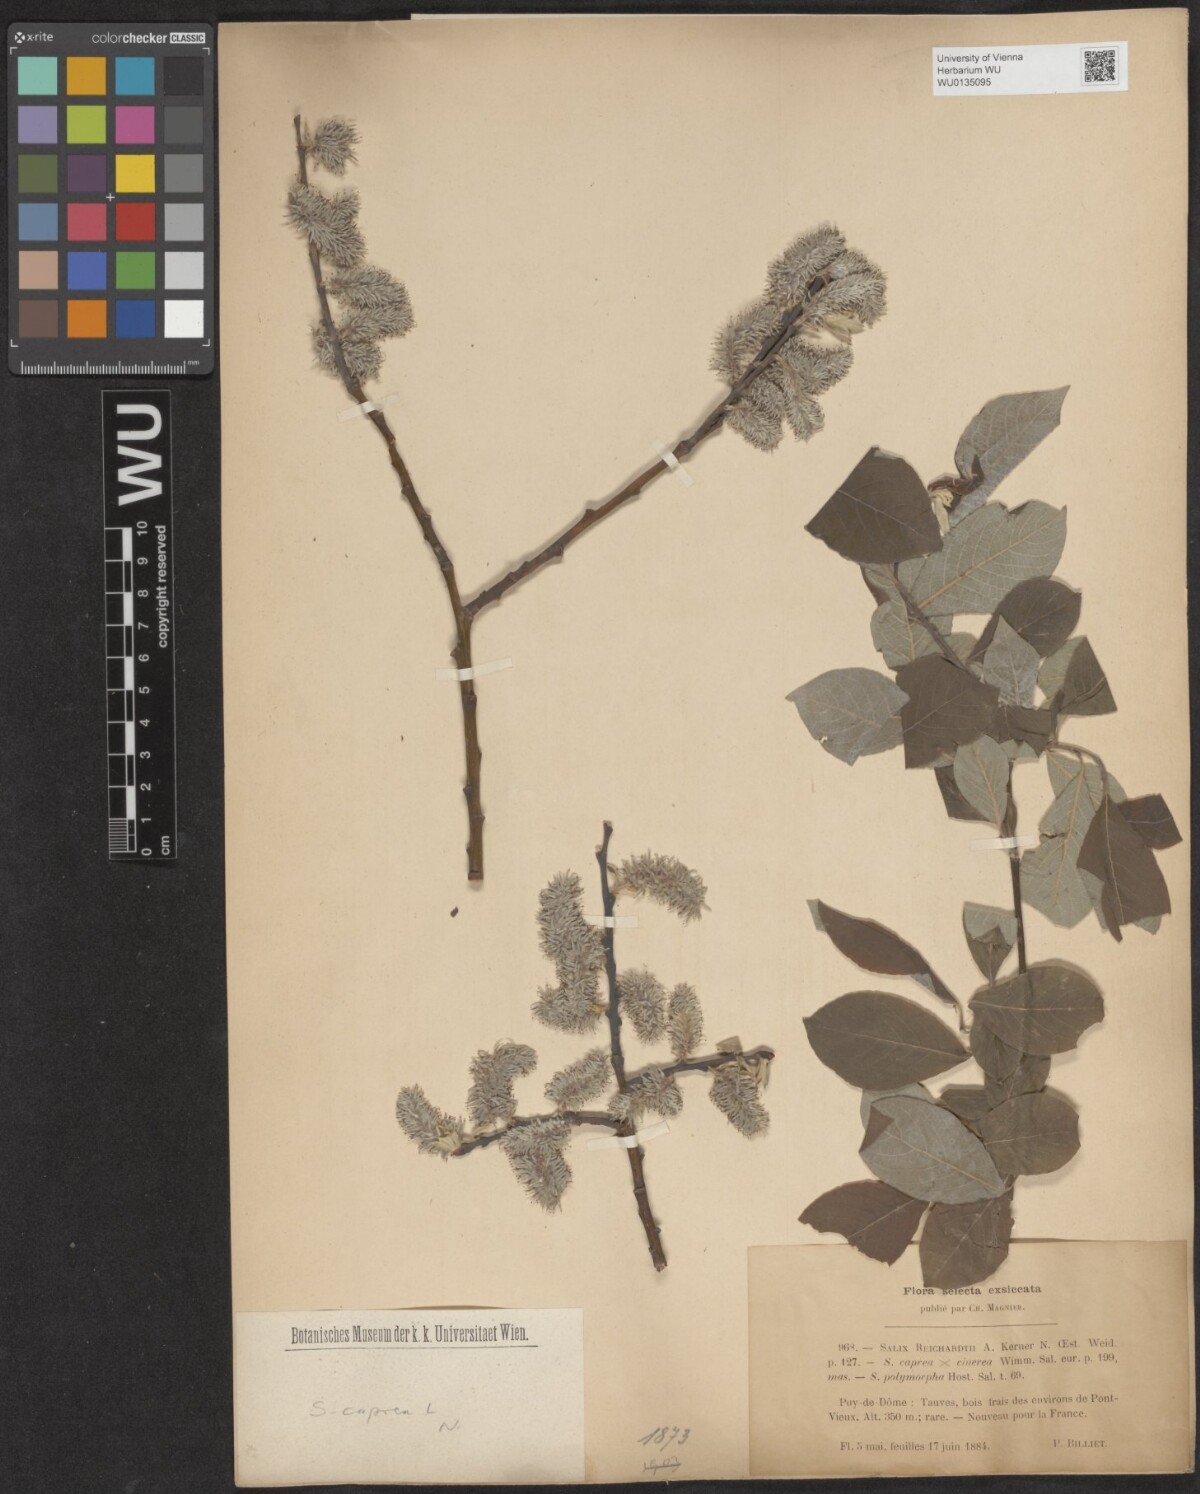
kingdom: Plantae
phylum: Tracheophyta
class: Magnoliopsida
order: Malpighiales
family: Salicaceae
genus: Salix
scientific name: Salix caprea
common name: Goat willow
